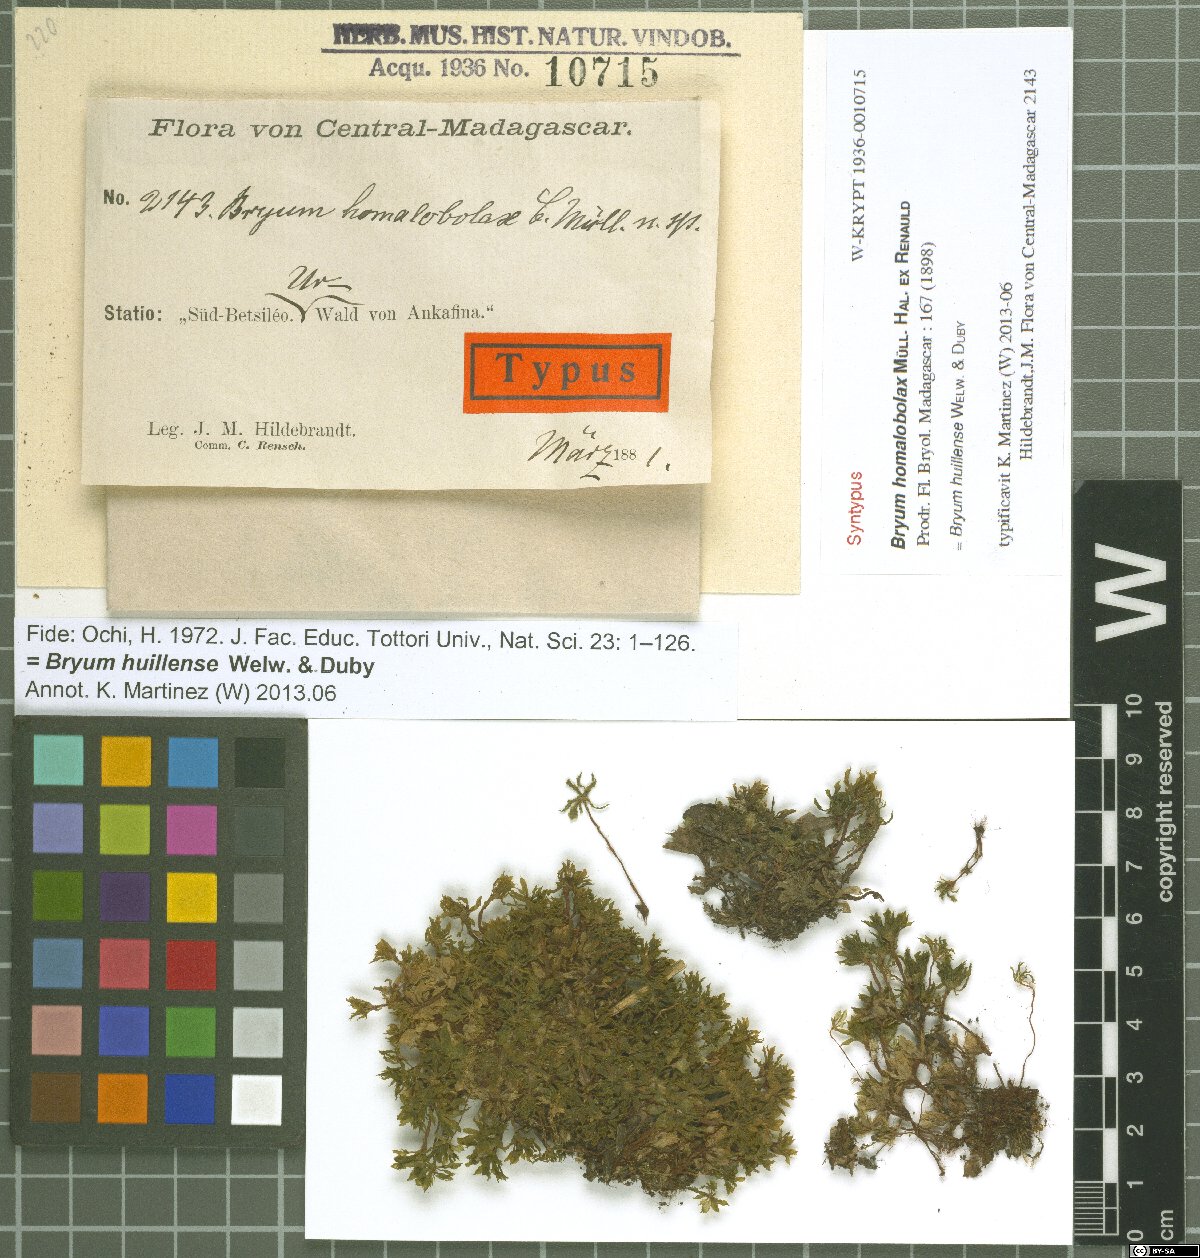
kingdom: Plantae
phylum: Bryophyta
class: Bryopsida
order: Bryales
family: Bryaceae
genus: Rosulabryum
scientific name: Rosulabryum erythrocaulon
